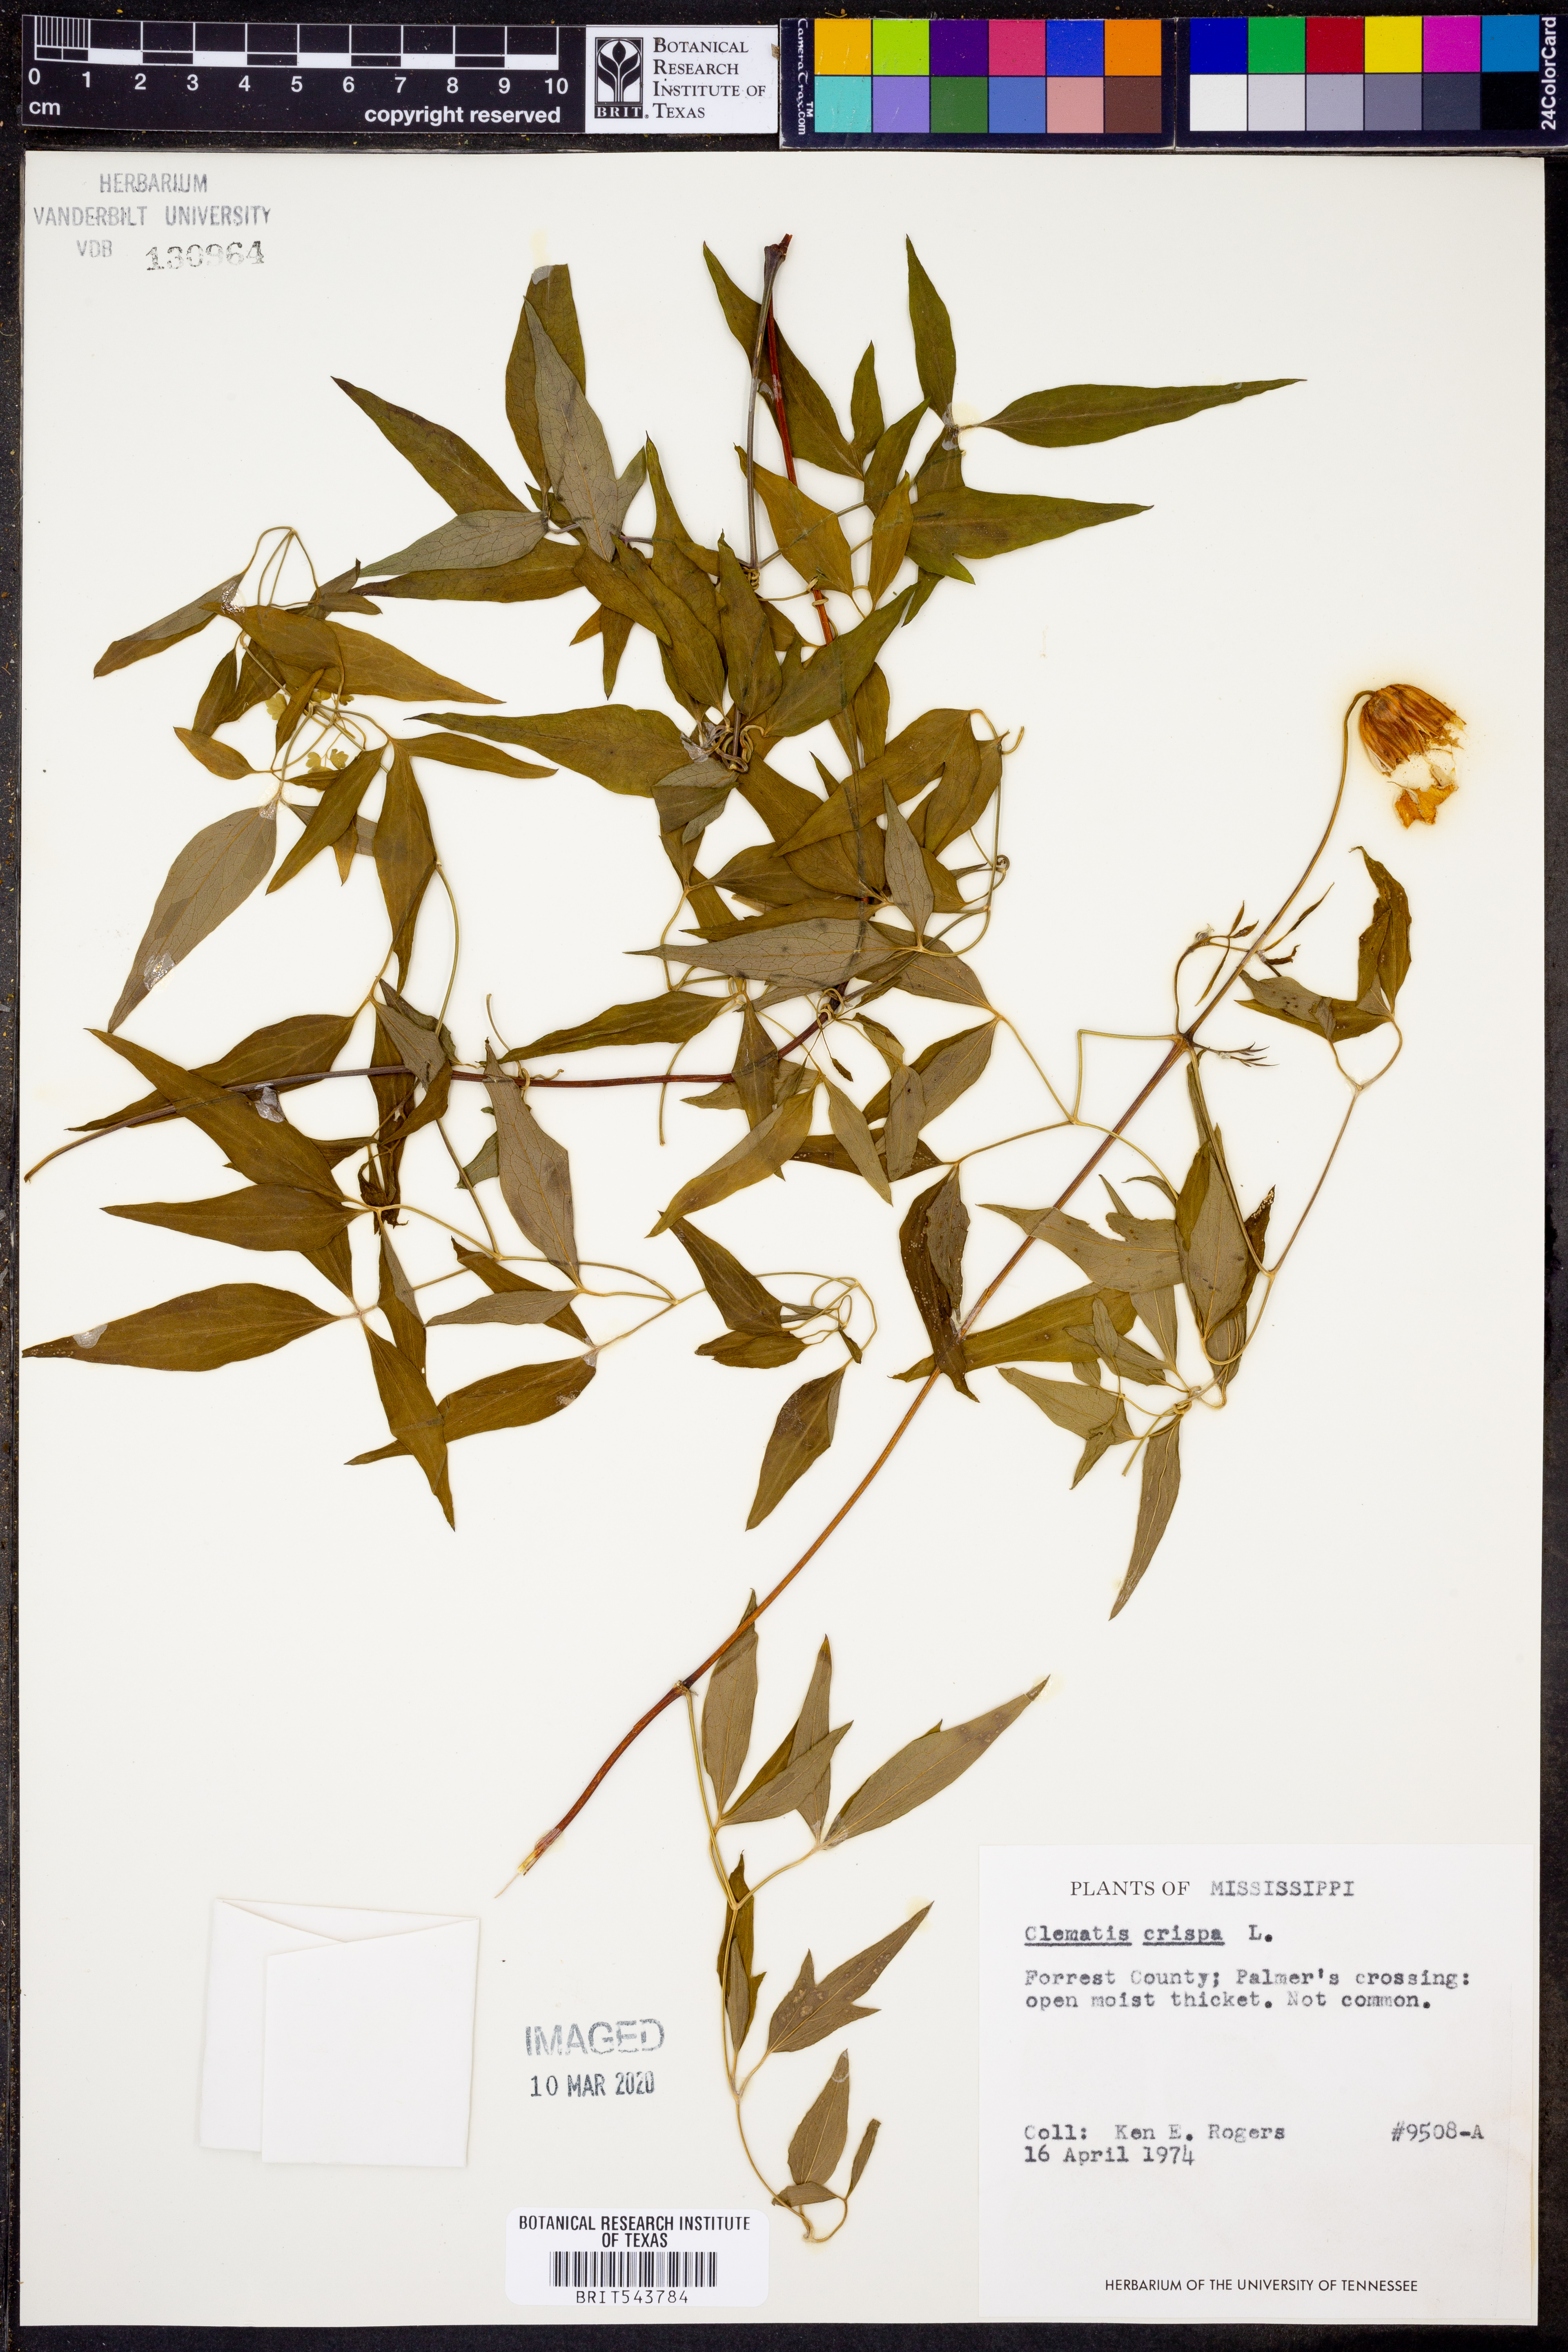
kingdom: Plantae
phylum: Tracheophyta
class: Magnoliopsida
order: Ranunculales
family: Ranunculaceae
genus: Clematis
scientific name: Clematis crispa
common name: Curly clematis
